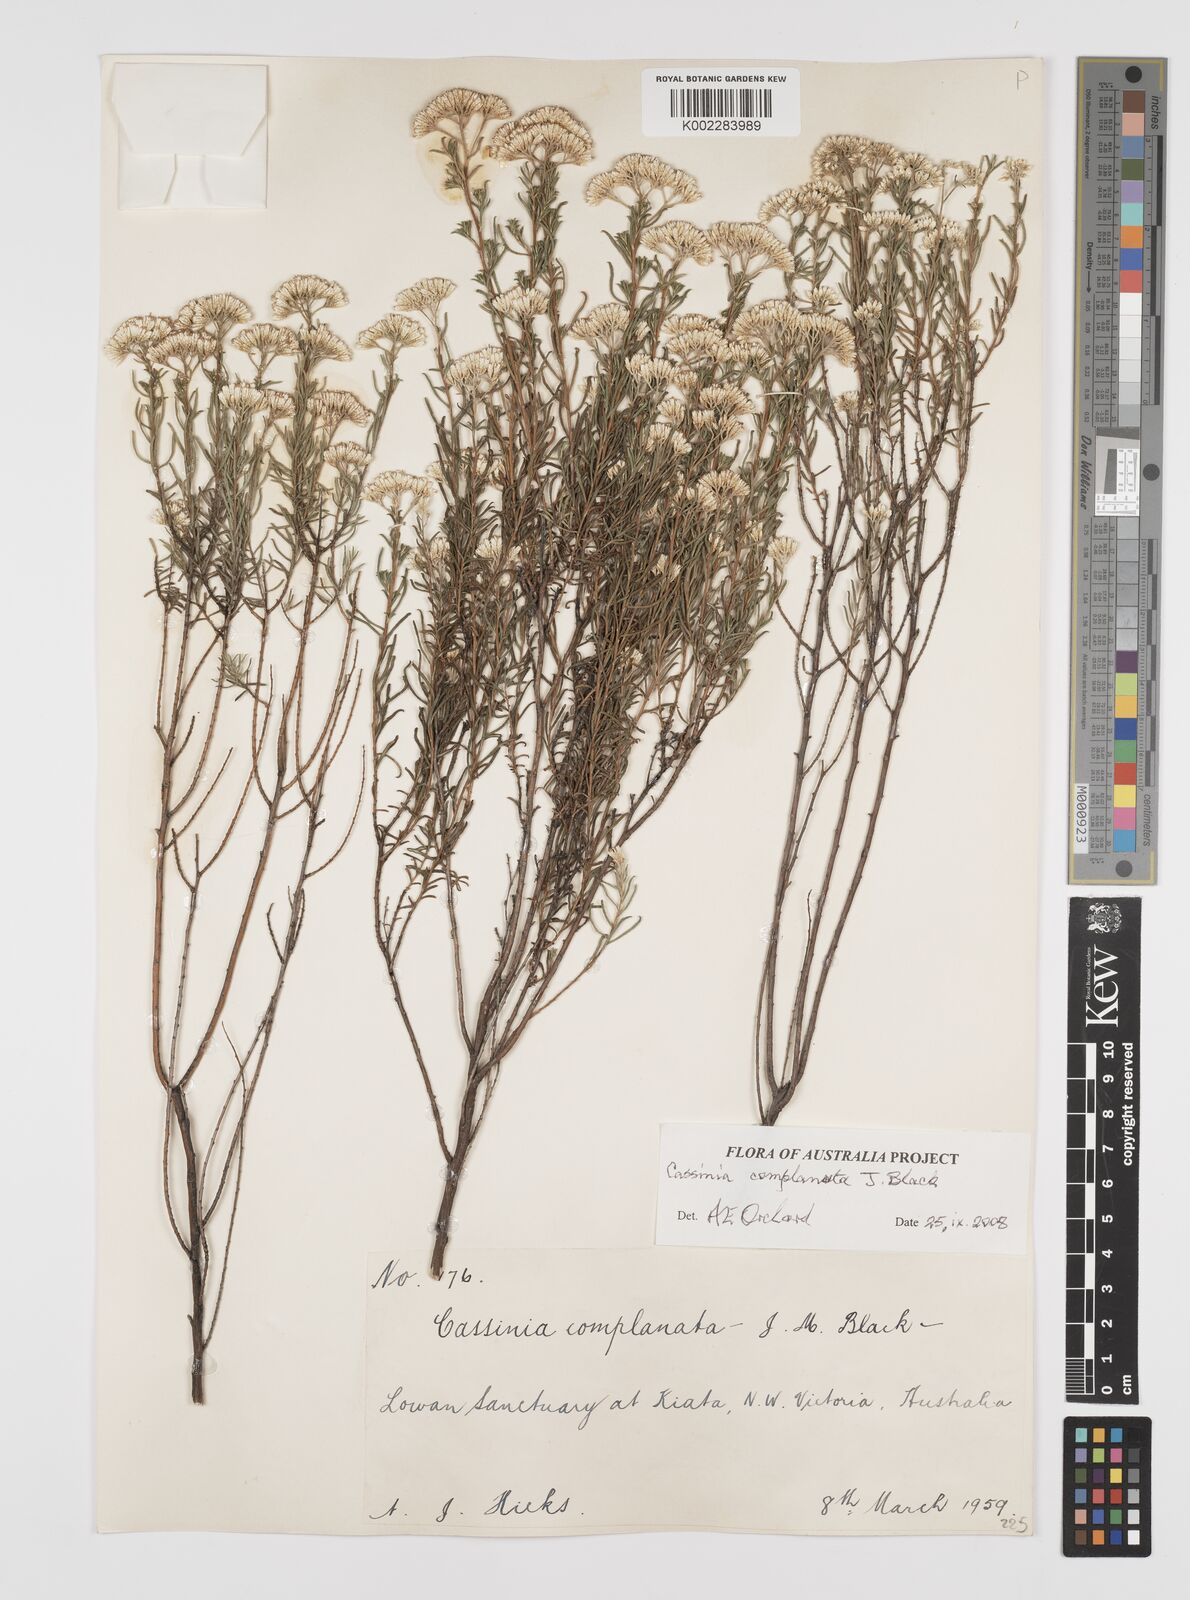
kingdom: Plantae
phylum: Tracheophyta
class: Magnoliopsida
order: Asterales
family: Asteraceae
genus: Cassinia
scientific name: Cassinia complanata
